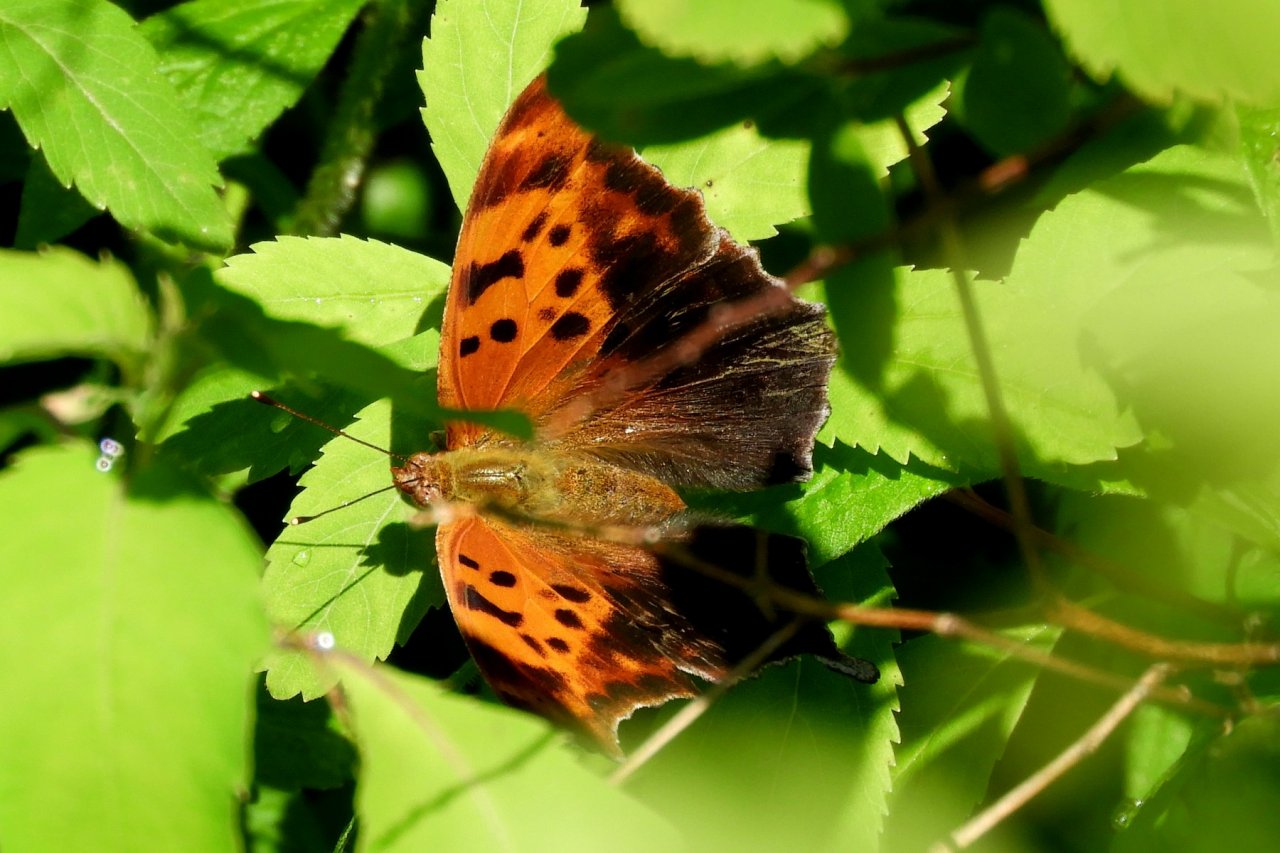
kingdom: Animalia
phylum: Arthropoda
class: Insecta
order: Lepidoptera
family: Nymphalidae
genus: Polygonia
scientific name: Polygonia interrogationis
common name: Question Mark
